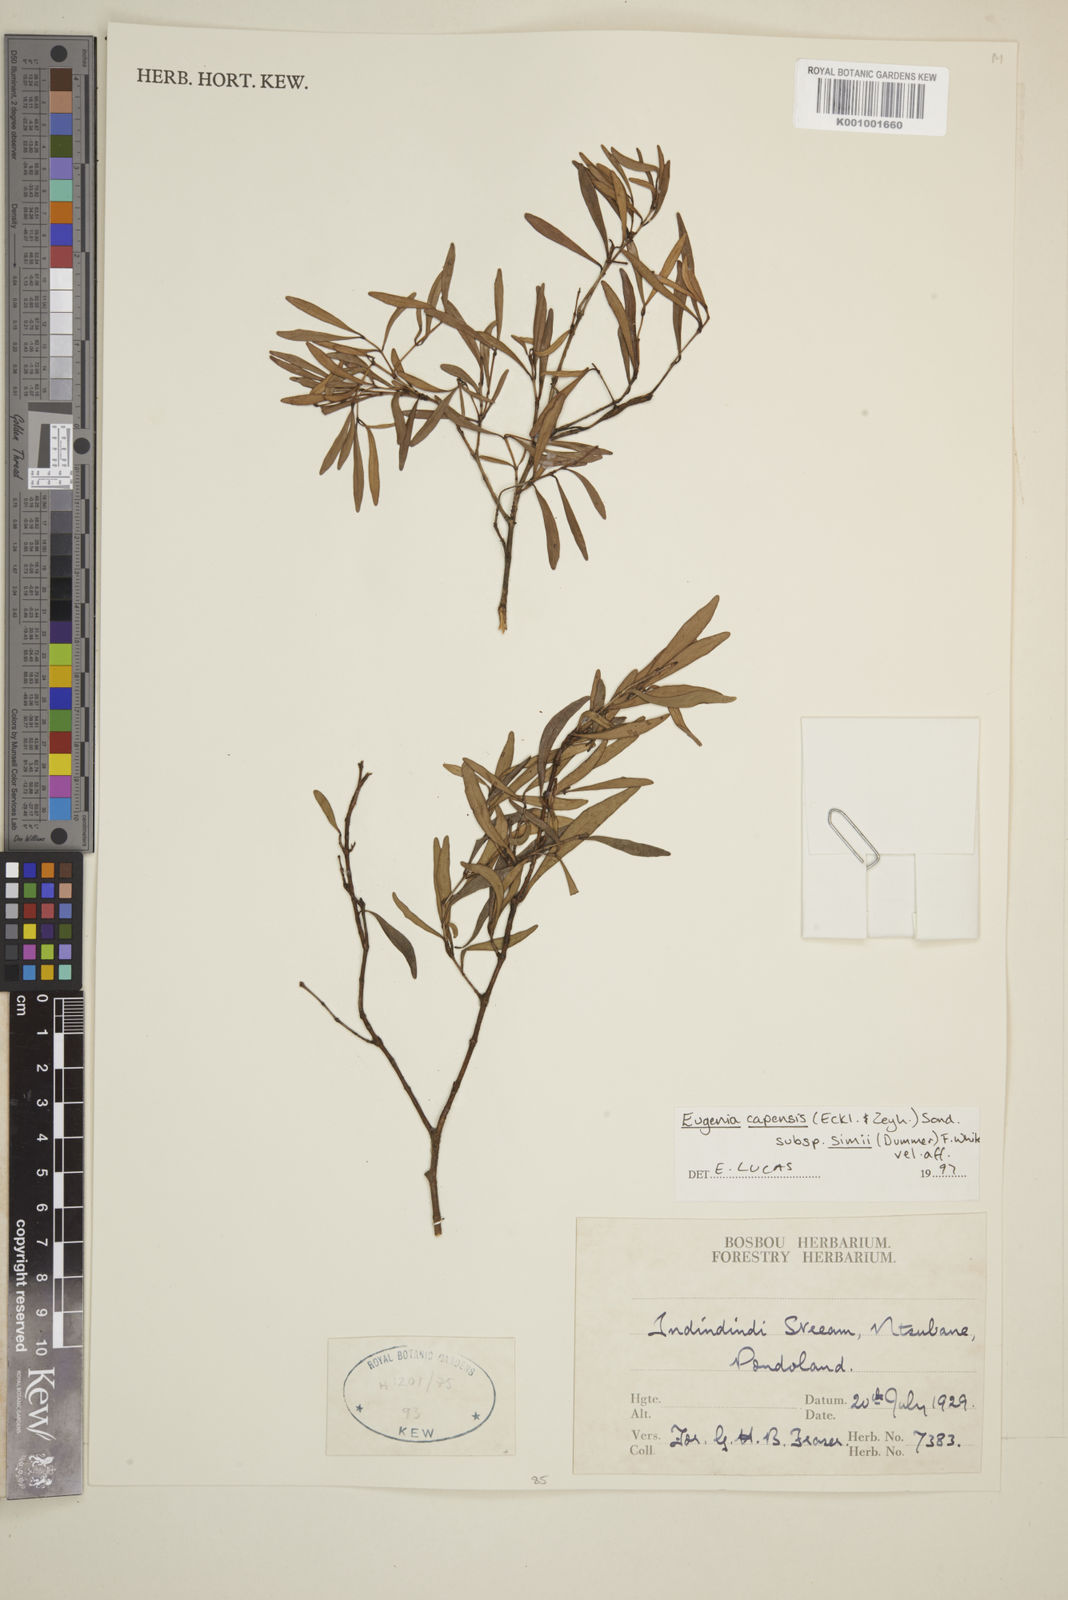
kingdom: Plantae
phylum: Tracheophyta
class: Magnoliopsida
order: Myrtales
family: Myrtaceae
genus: Eugenia
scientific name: Eugenia simii
